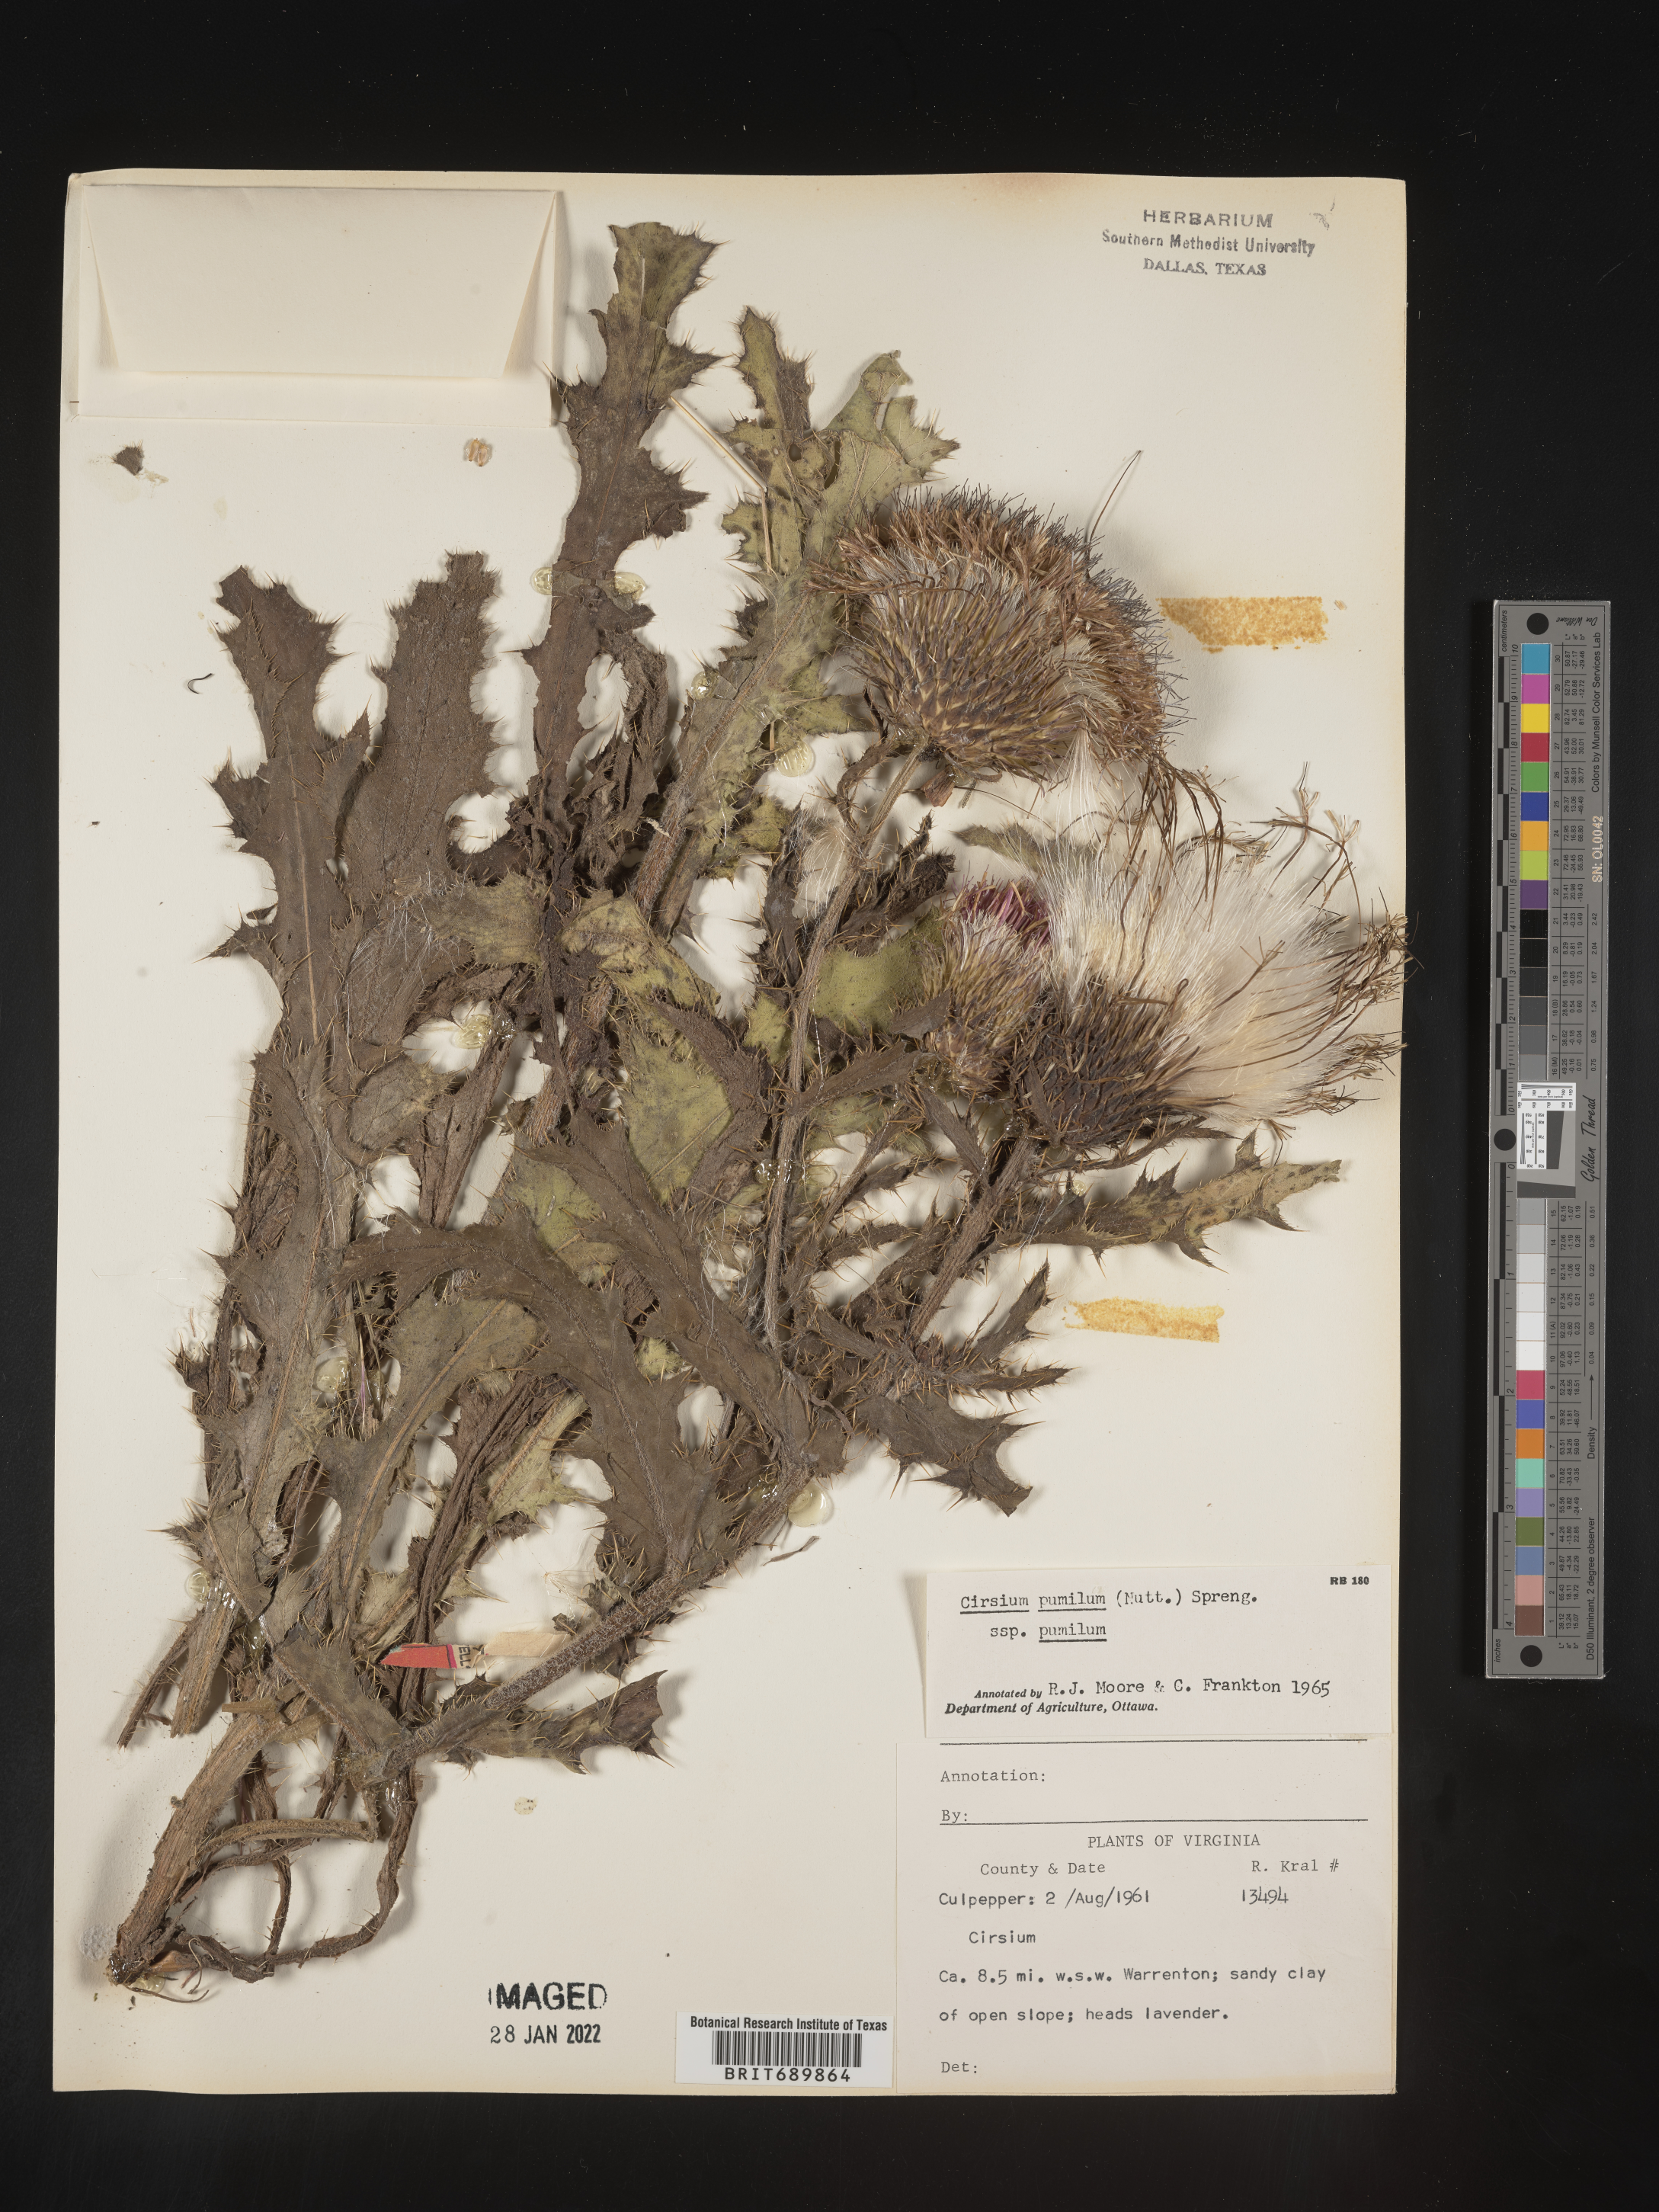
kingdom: Plantae
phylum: Tracheophyta
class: Magnoliopsida
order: Asterales
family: Asteraceae
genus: Cirsium
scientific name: Cirsium pumilum
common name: Pasture thistle
